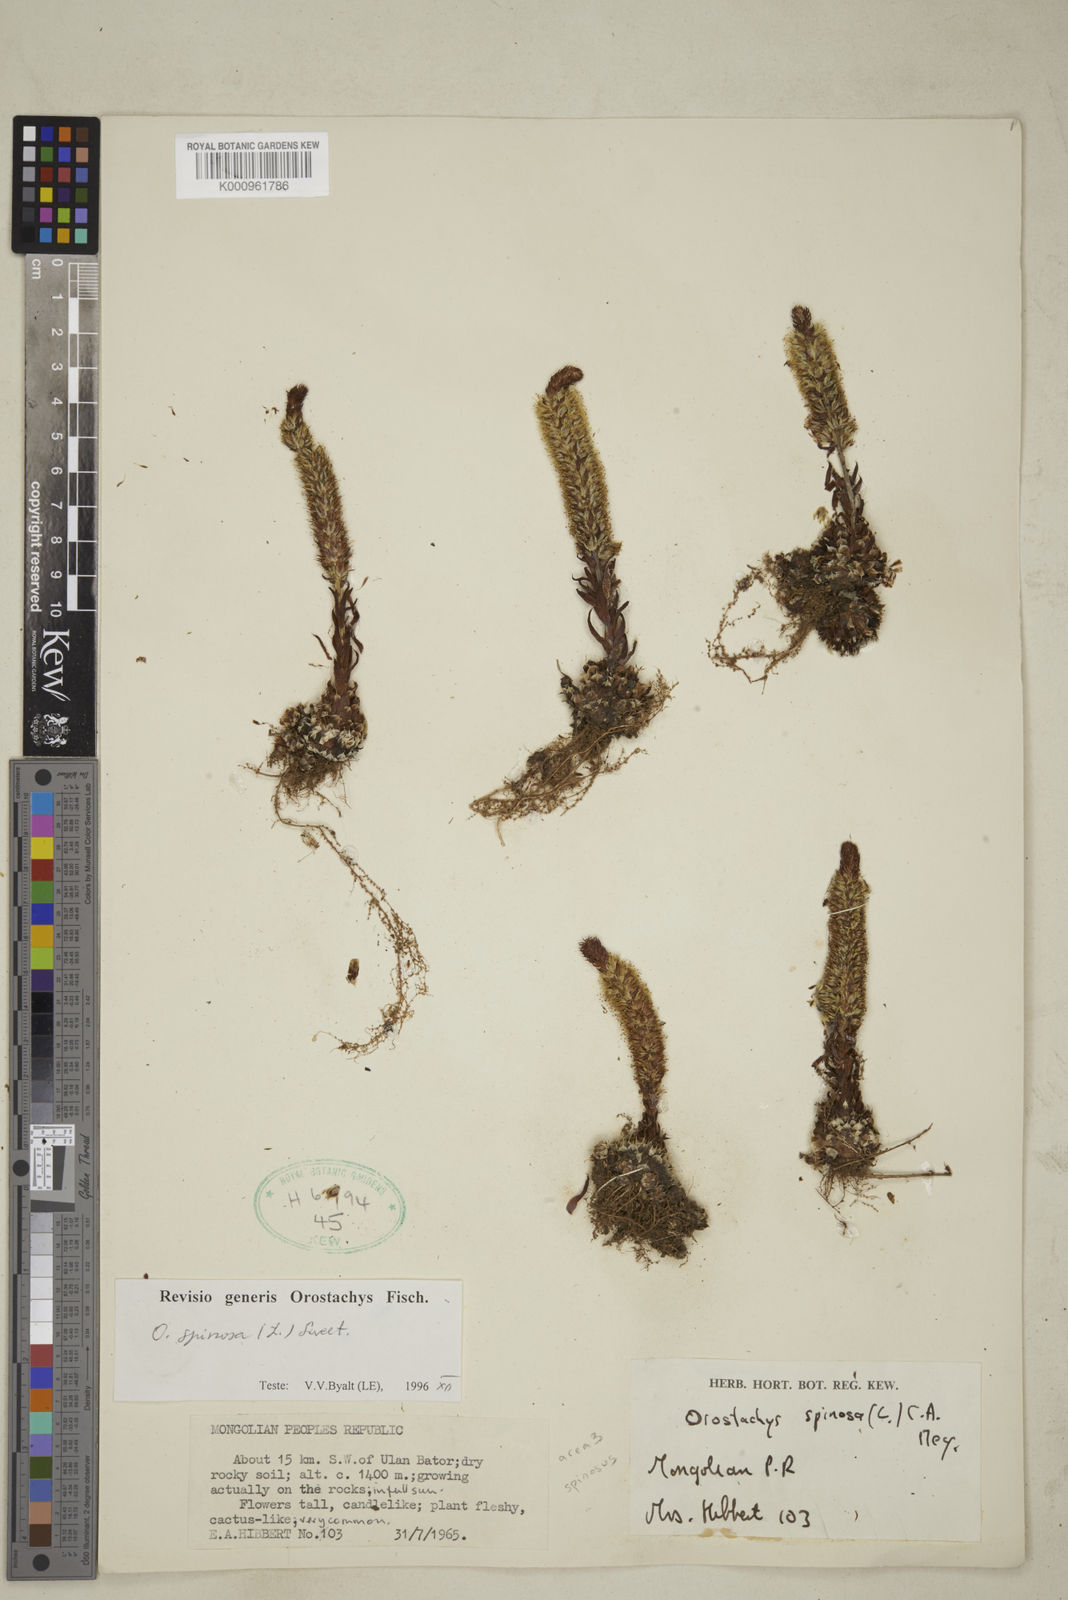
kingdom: Plantae
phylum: Tracheophyta
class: Magnoliopsida
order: Saxifragales
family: Crassulaceae
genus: Orostachys
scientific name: Orostachys spinosa
